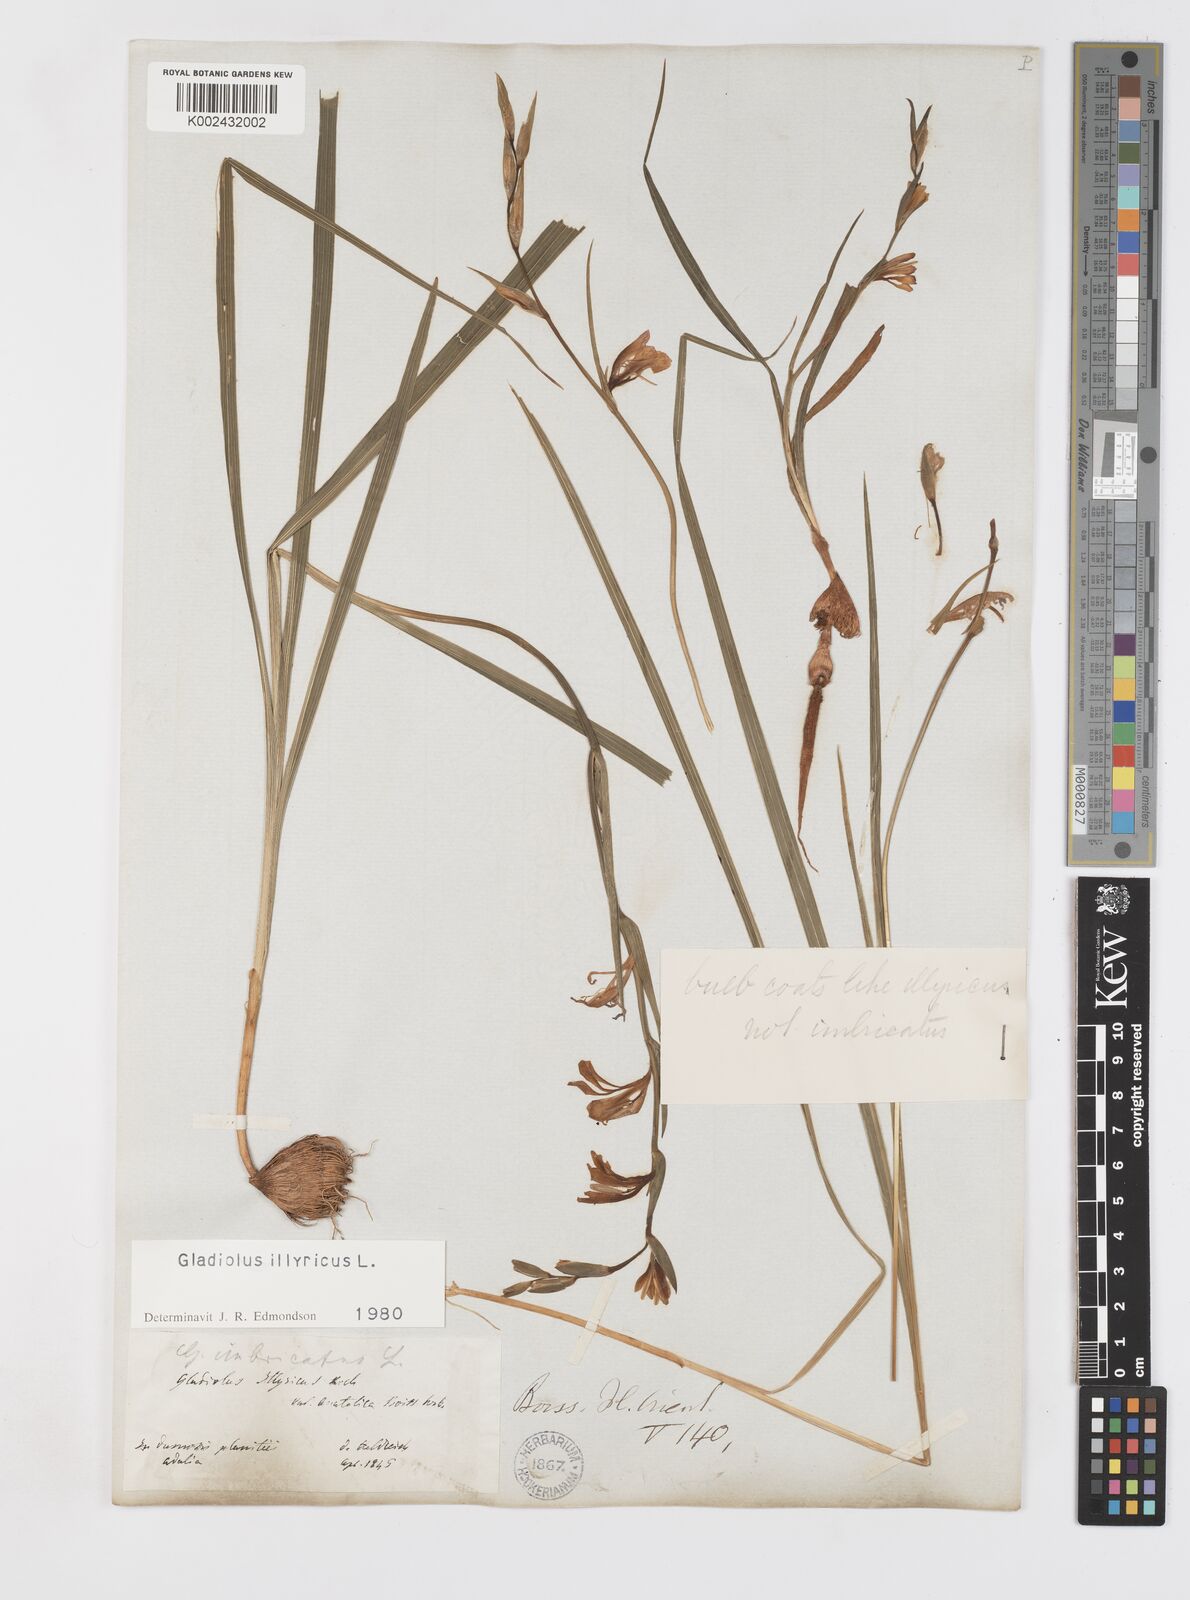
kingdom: Plantae
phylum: Tracheophyta
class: Liliopsida
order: Asparagales
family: Iridaceae
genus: Gladiolus
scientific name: Gladiolus illyricus
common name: Wild gladiolus
